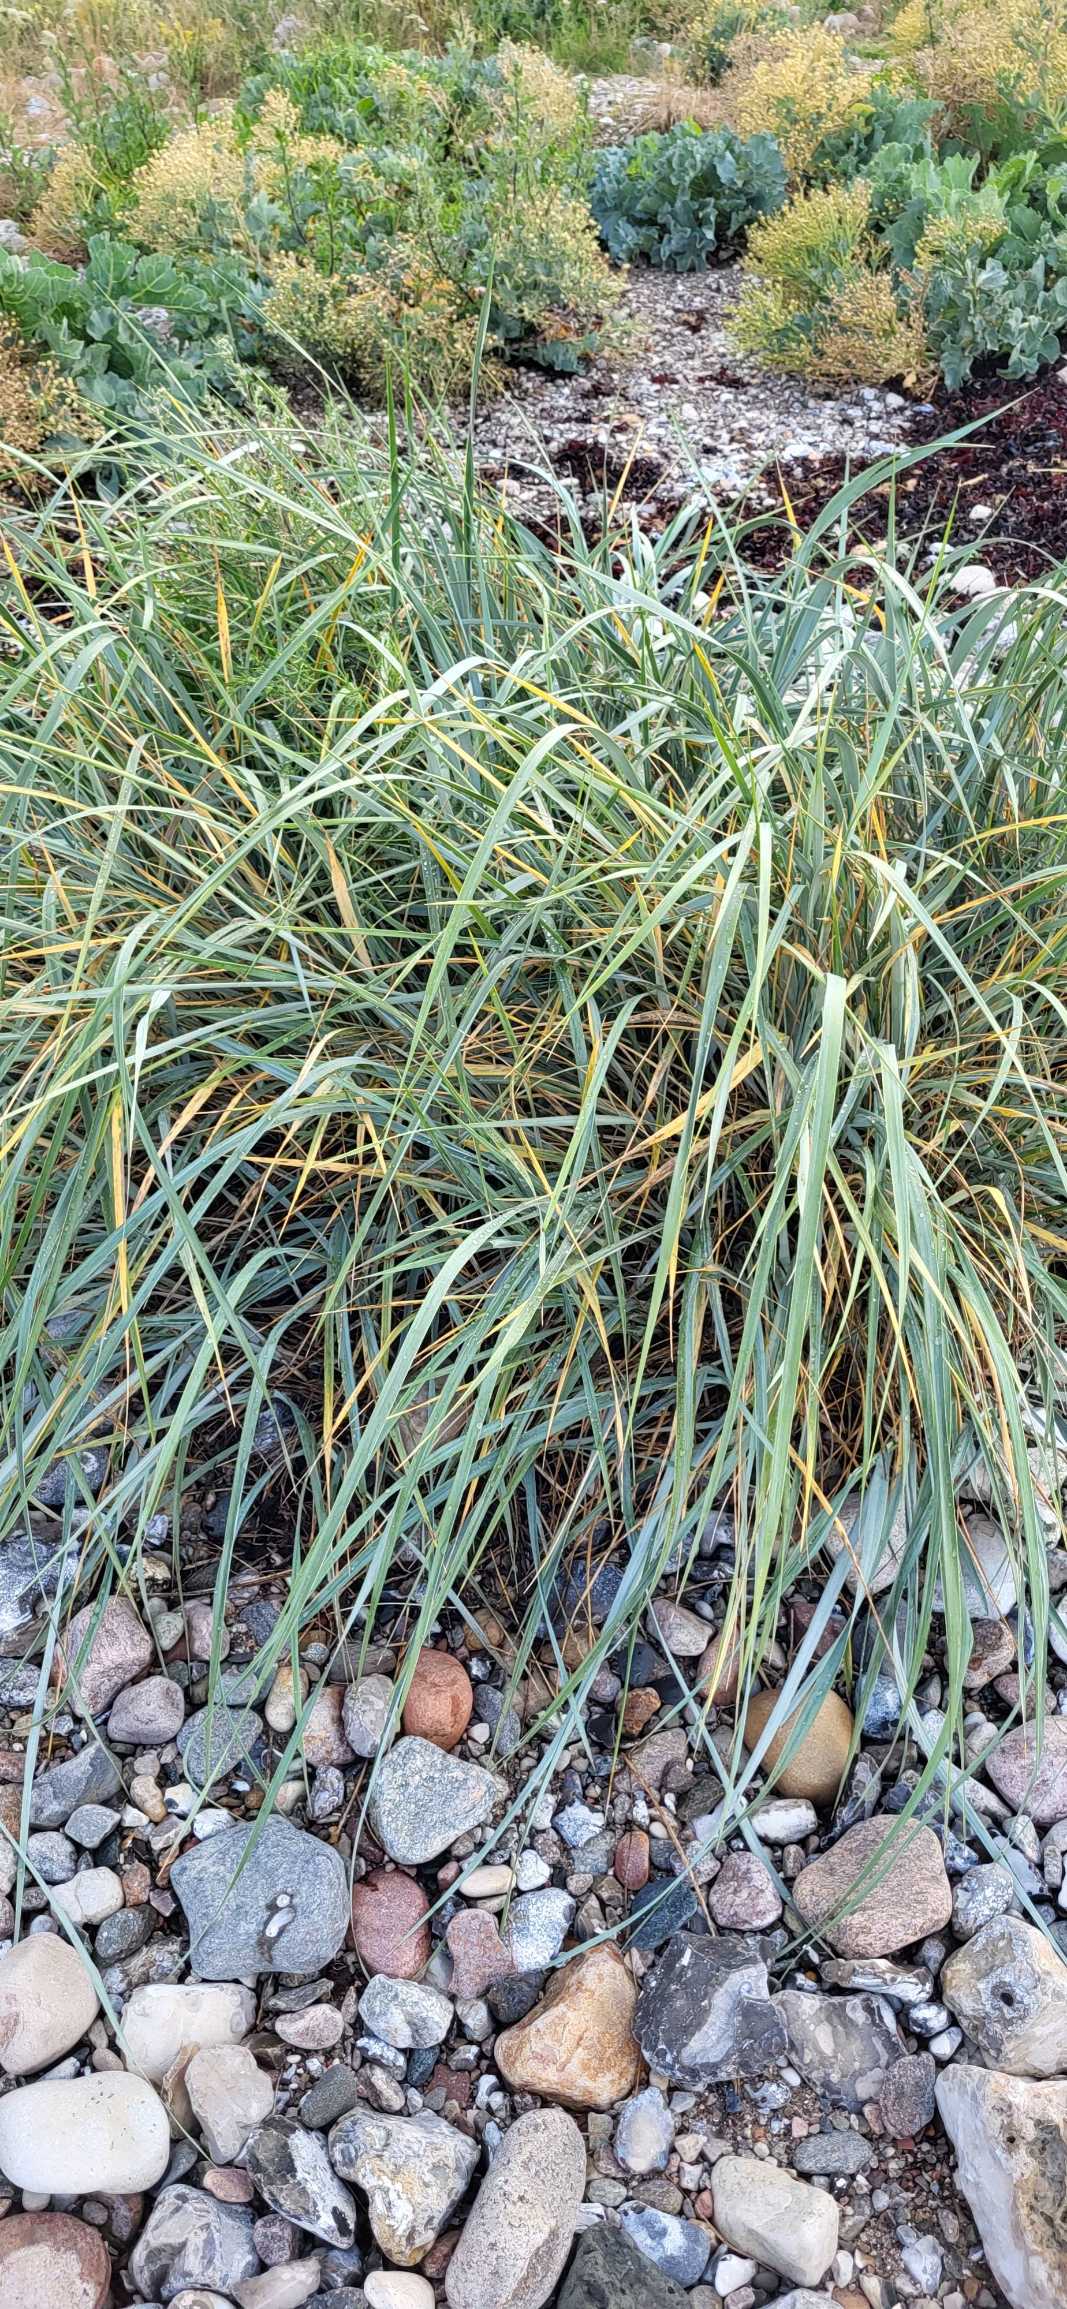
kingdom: Plantae
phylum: Tracheophyta
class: Liliopsida
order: Poales
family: Poaceae
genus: Leymus
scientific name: Leymus arenarius
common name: Marehalm
